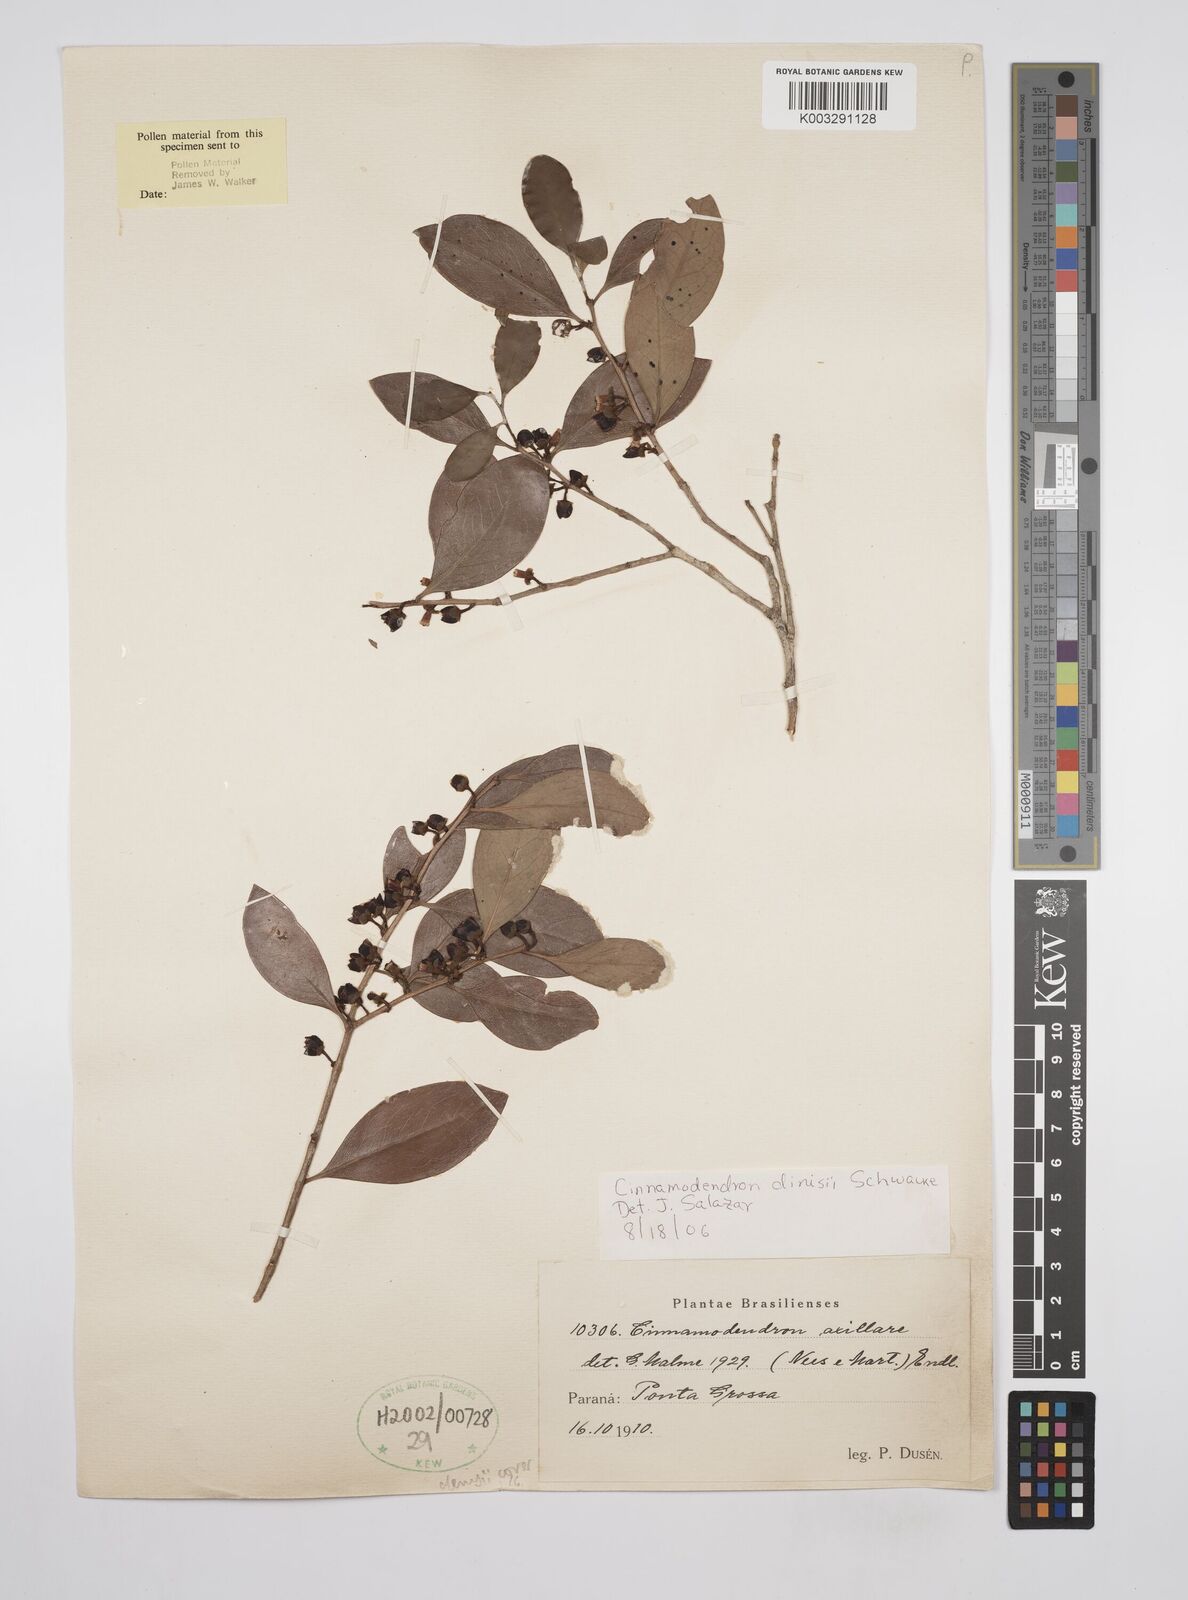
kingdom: Plantae
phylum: Tracheophyta
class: Magnoliopsida
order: Canellales
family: Canellaceae
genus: Cinnamodendron
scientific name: Cinnamodendron dinisii
